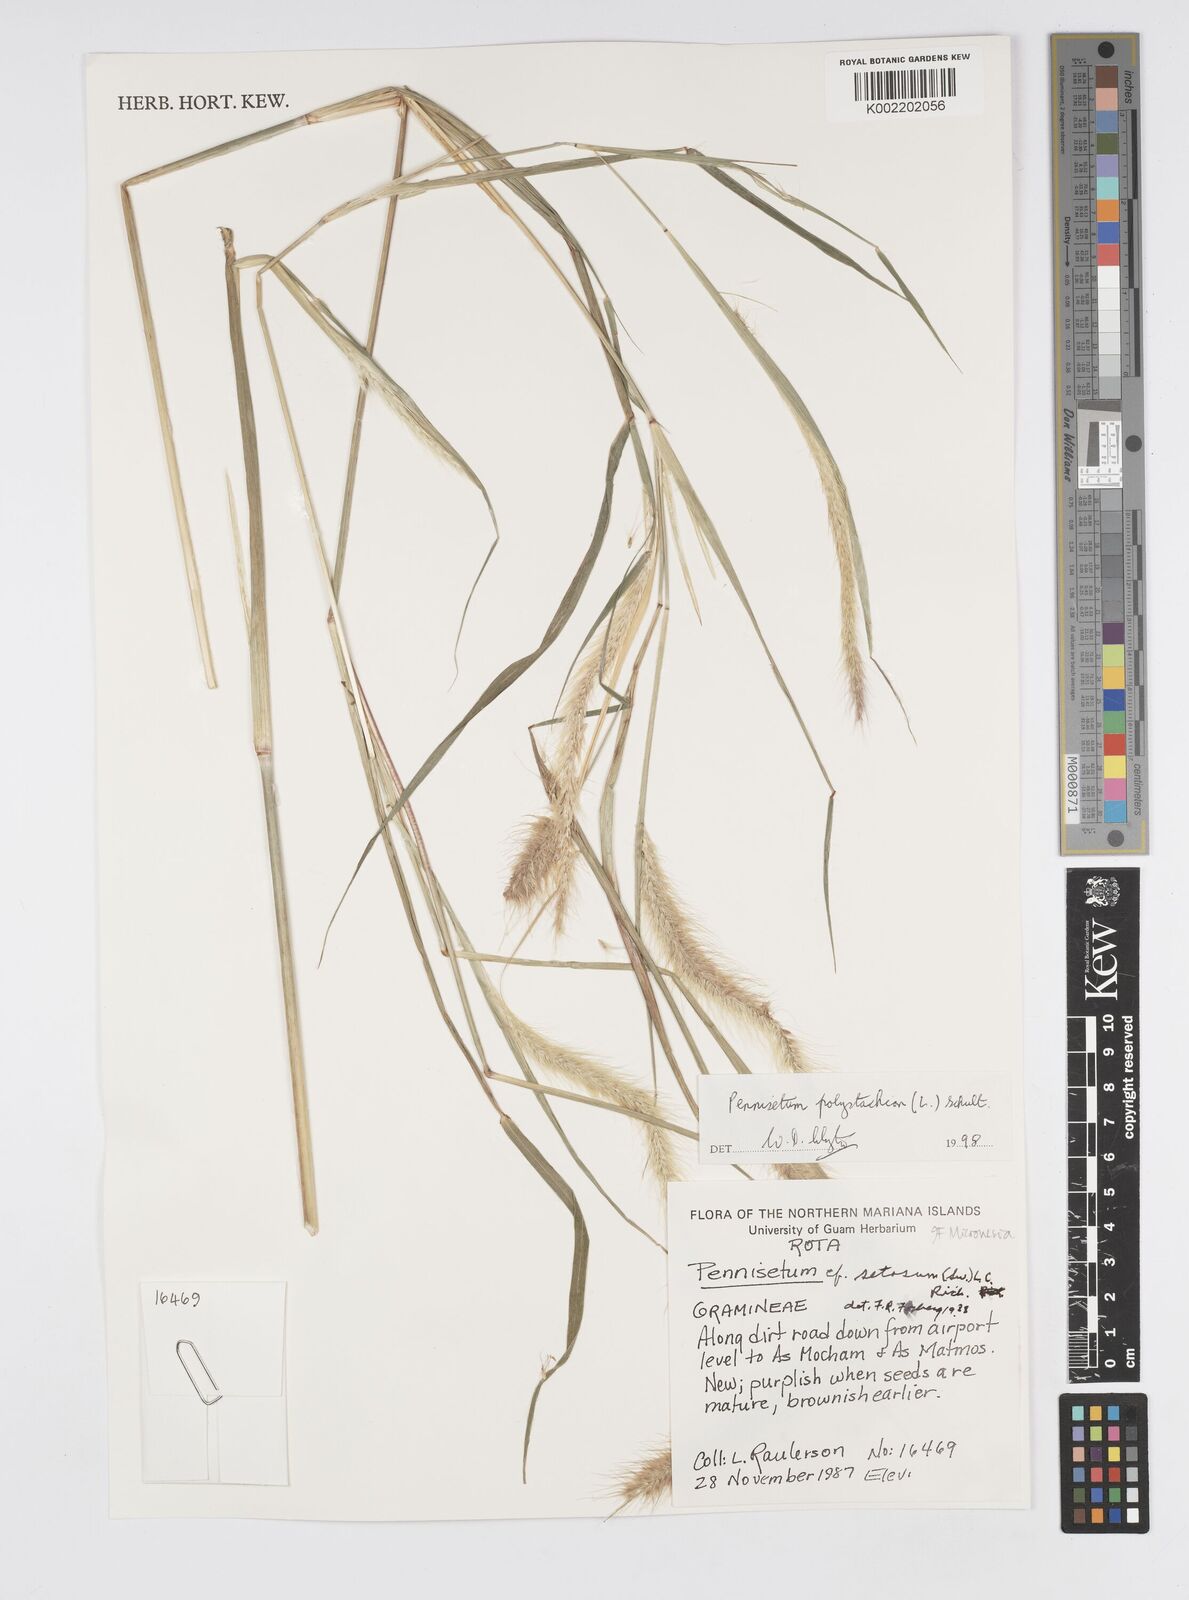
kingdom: Plantae
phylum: Tracheophyta
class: Liliopsida
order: Poales
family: Poaceae
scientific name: Poaceae
